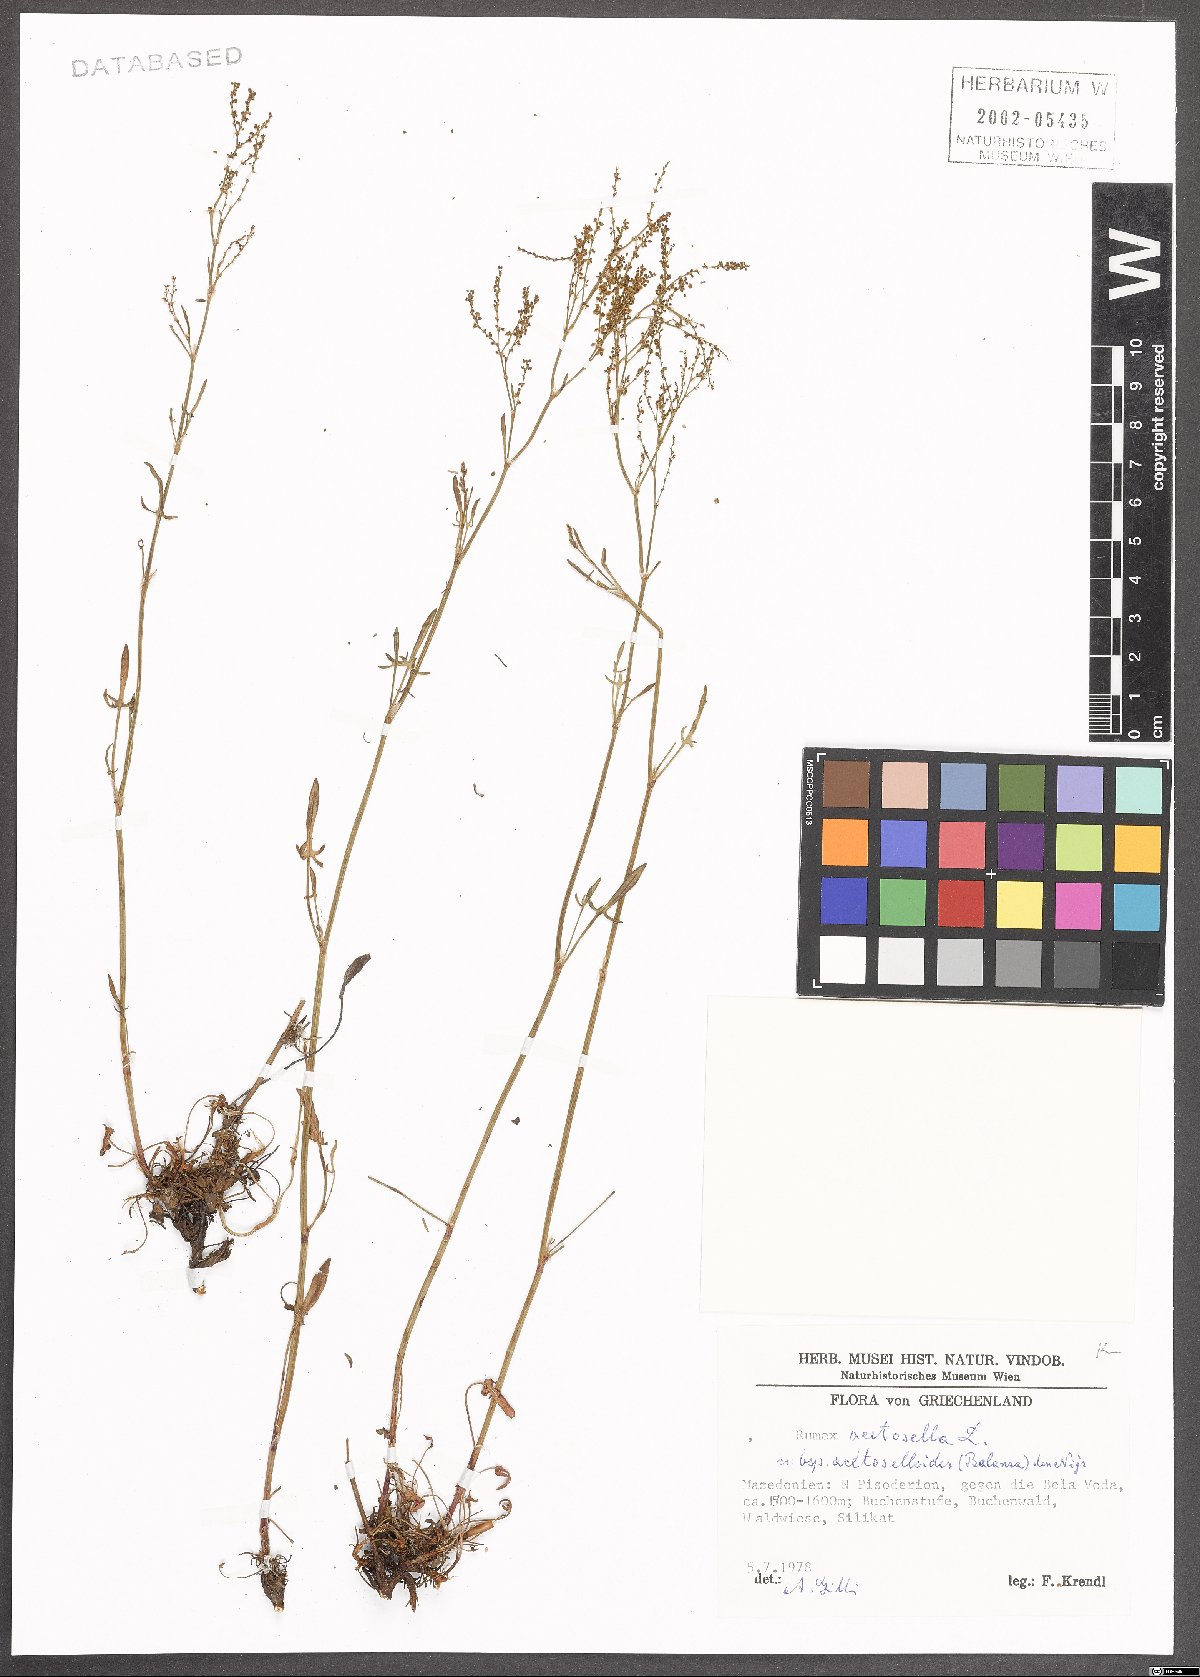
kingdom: Plantae
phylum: Tracheophyta
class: Magnoliopsida
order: Caryophyllales
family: Polygonaceae
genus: Rumex
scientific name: Rumex acetosella
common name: Common sheep sorrel
